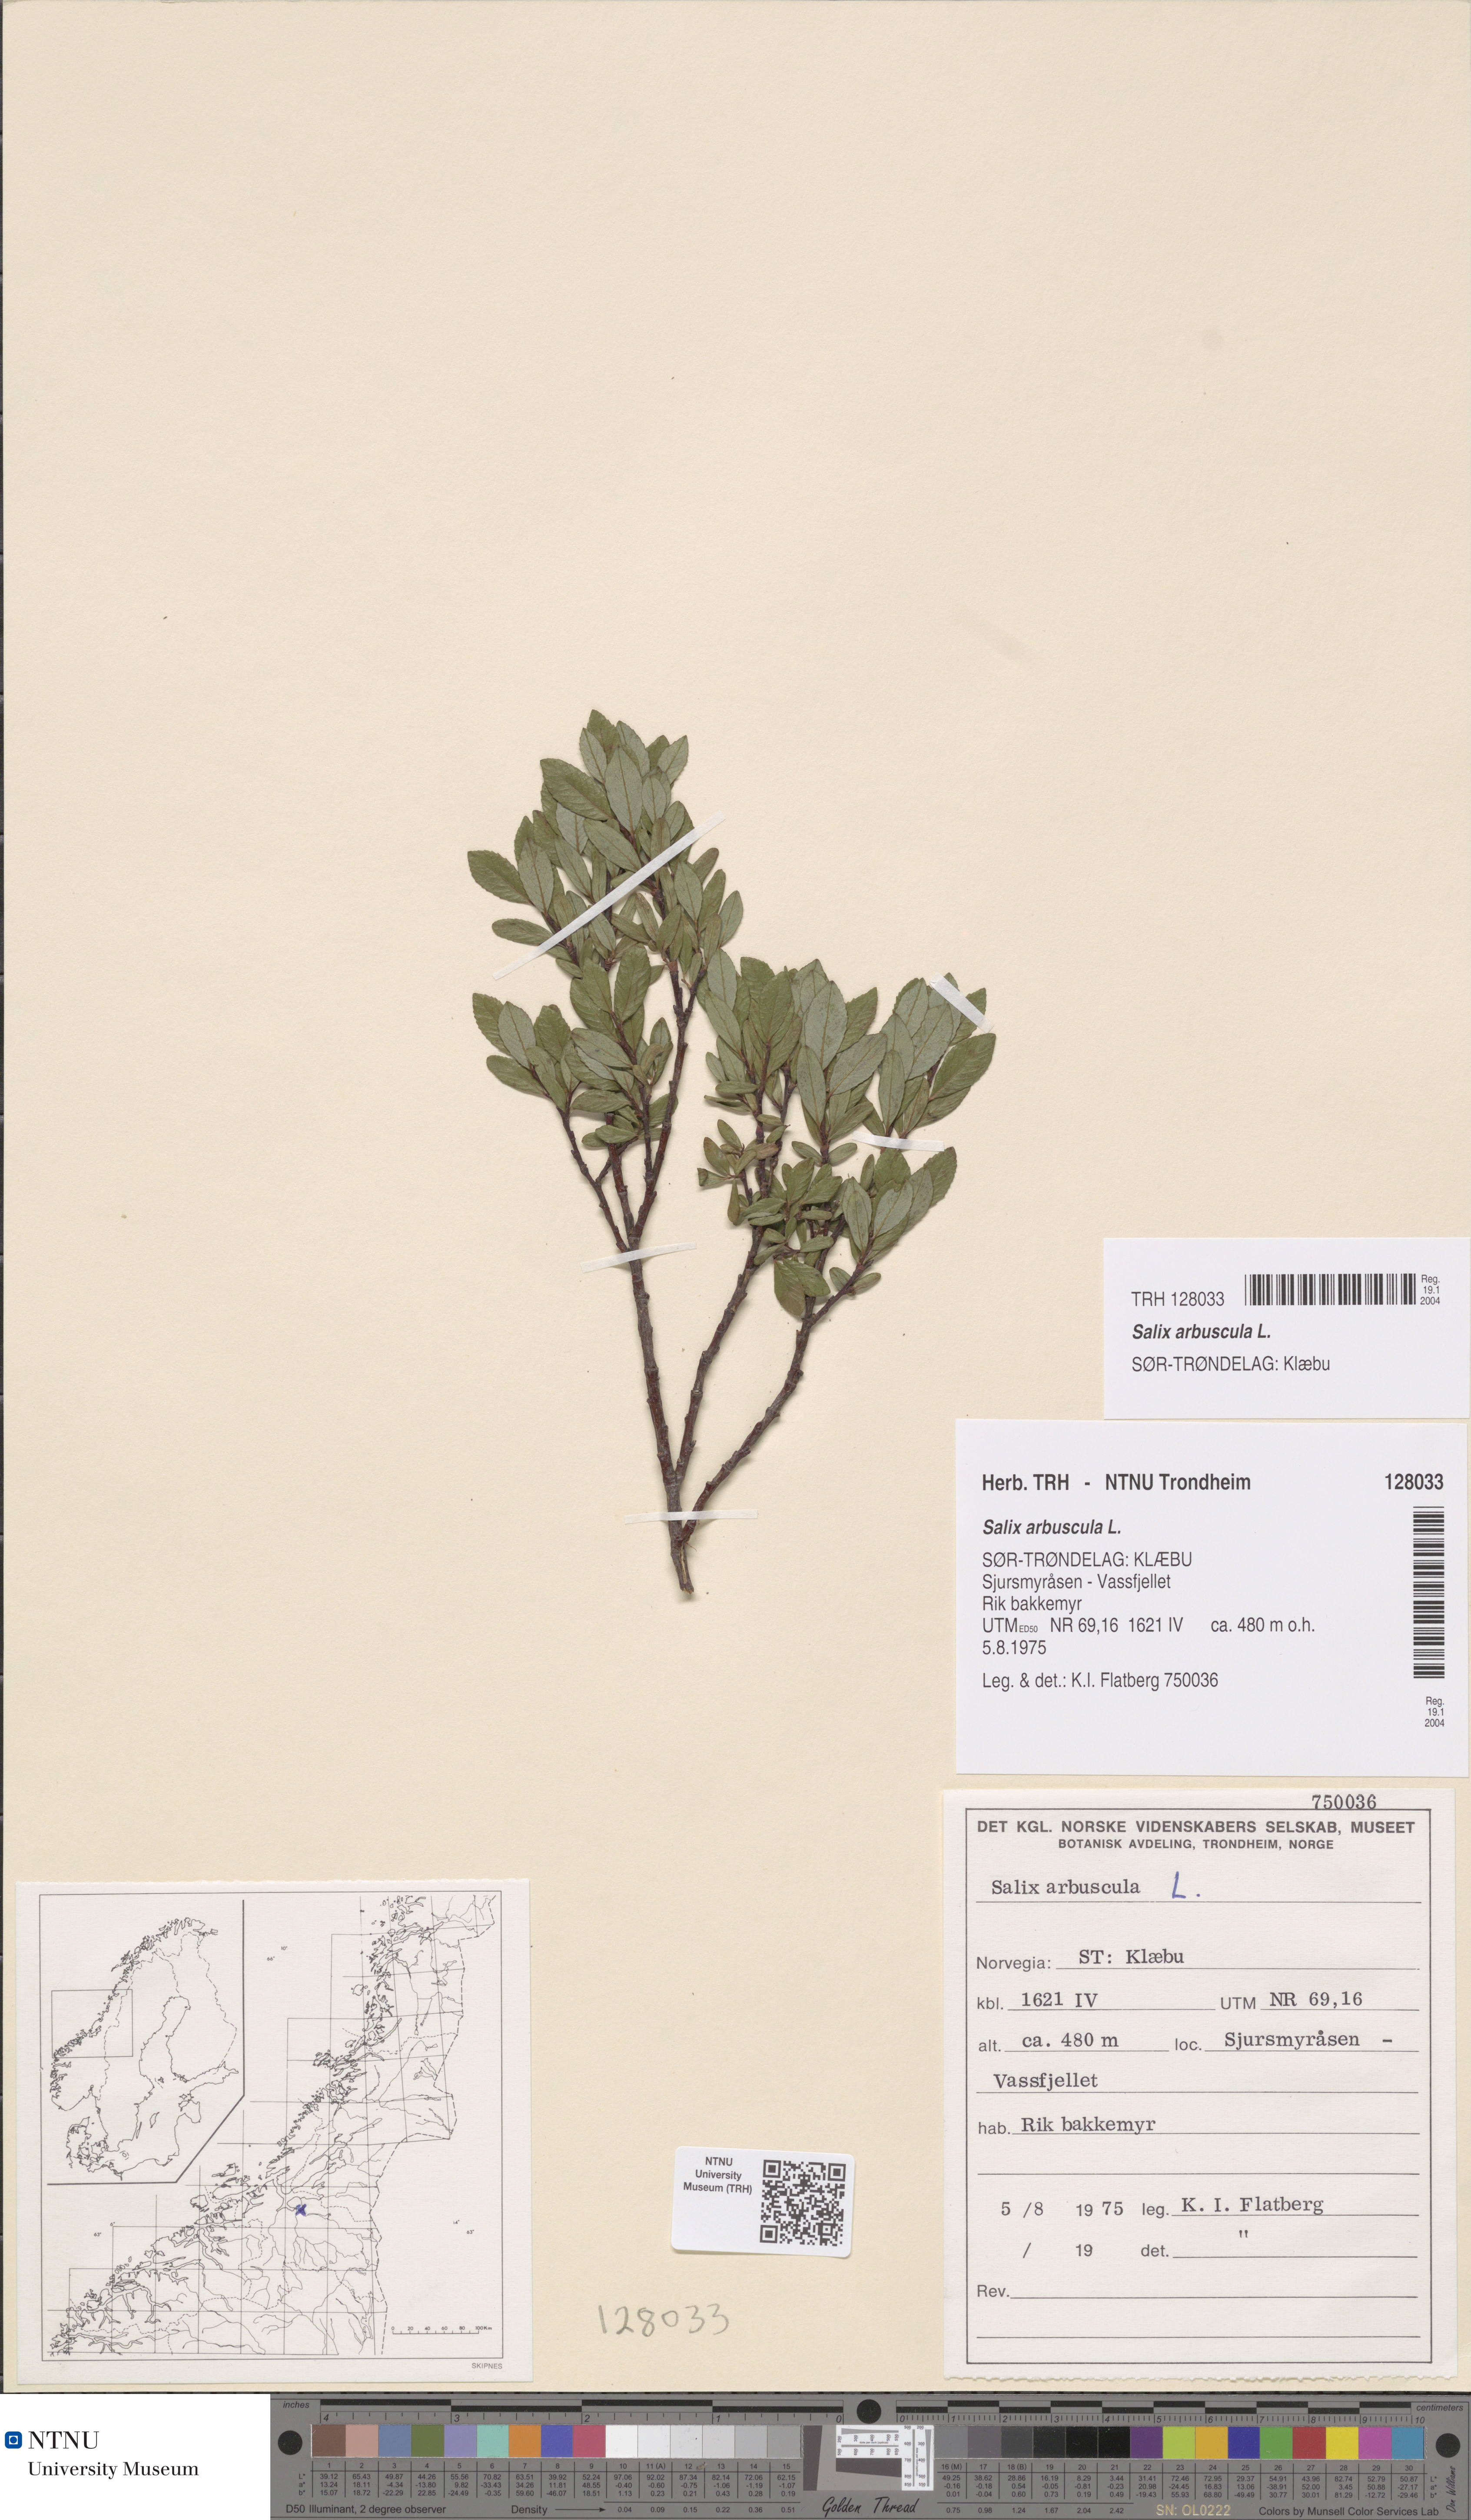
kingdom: Plantae
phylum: Tracheophyta
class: Magnoliopsida
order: Malpighiales
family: Salicaceae
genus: Salix
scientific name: Salix arbuscula
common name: Mountain willow
